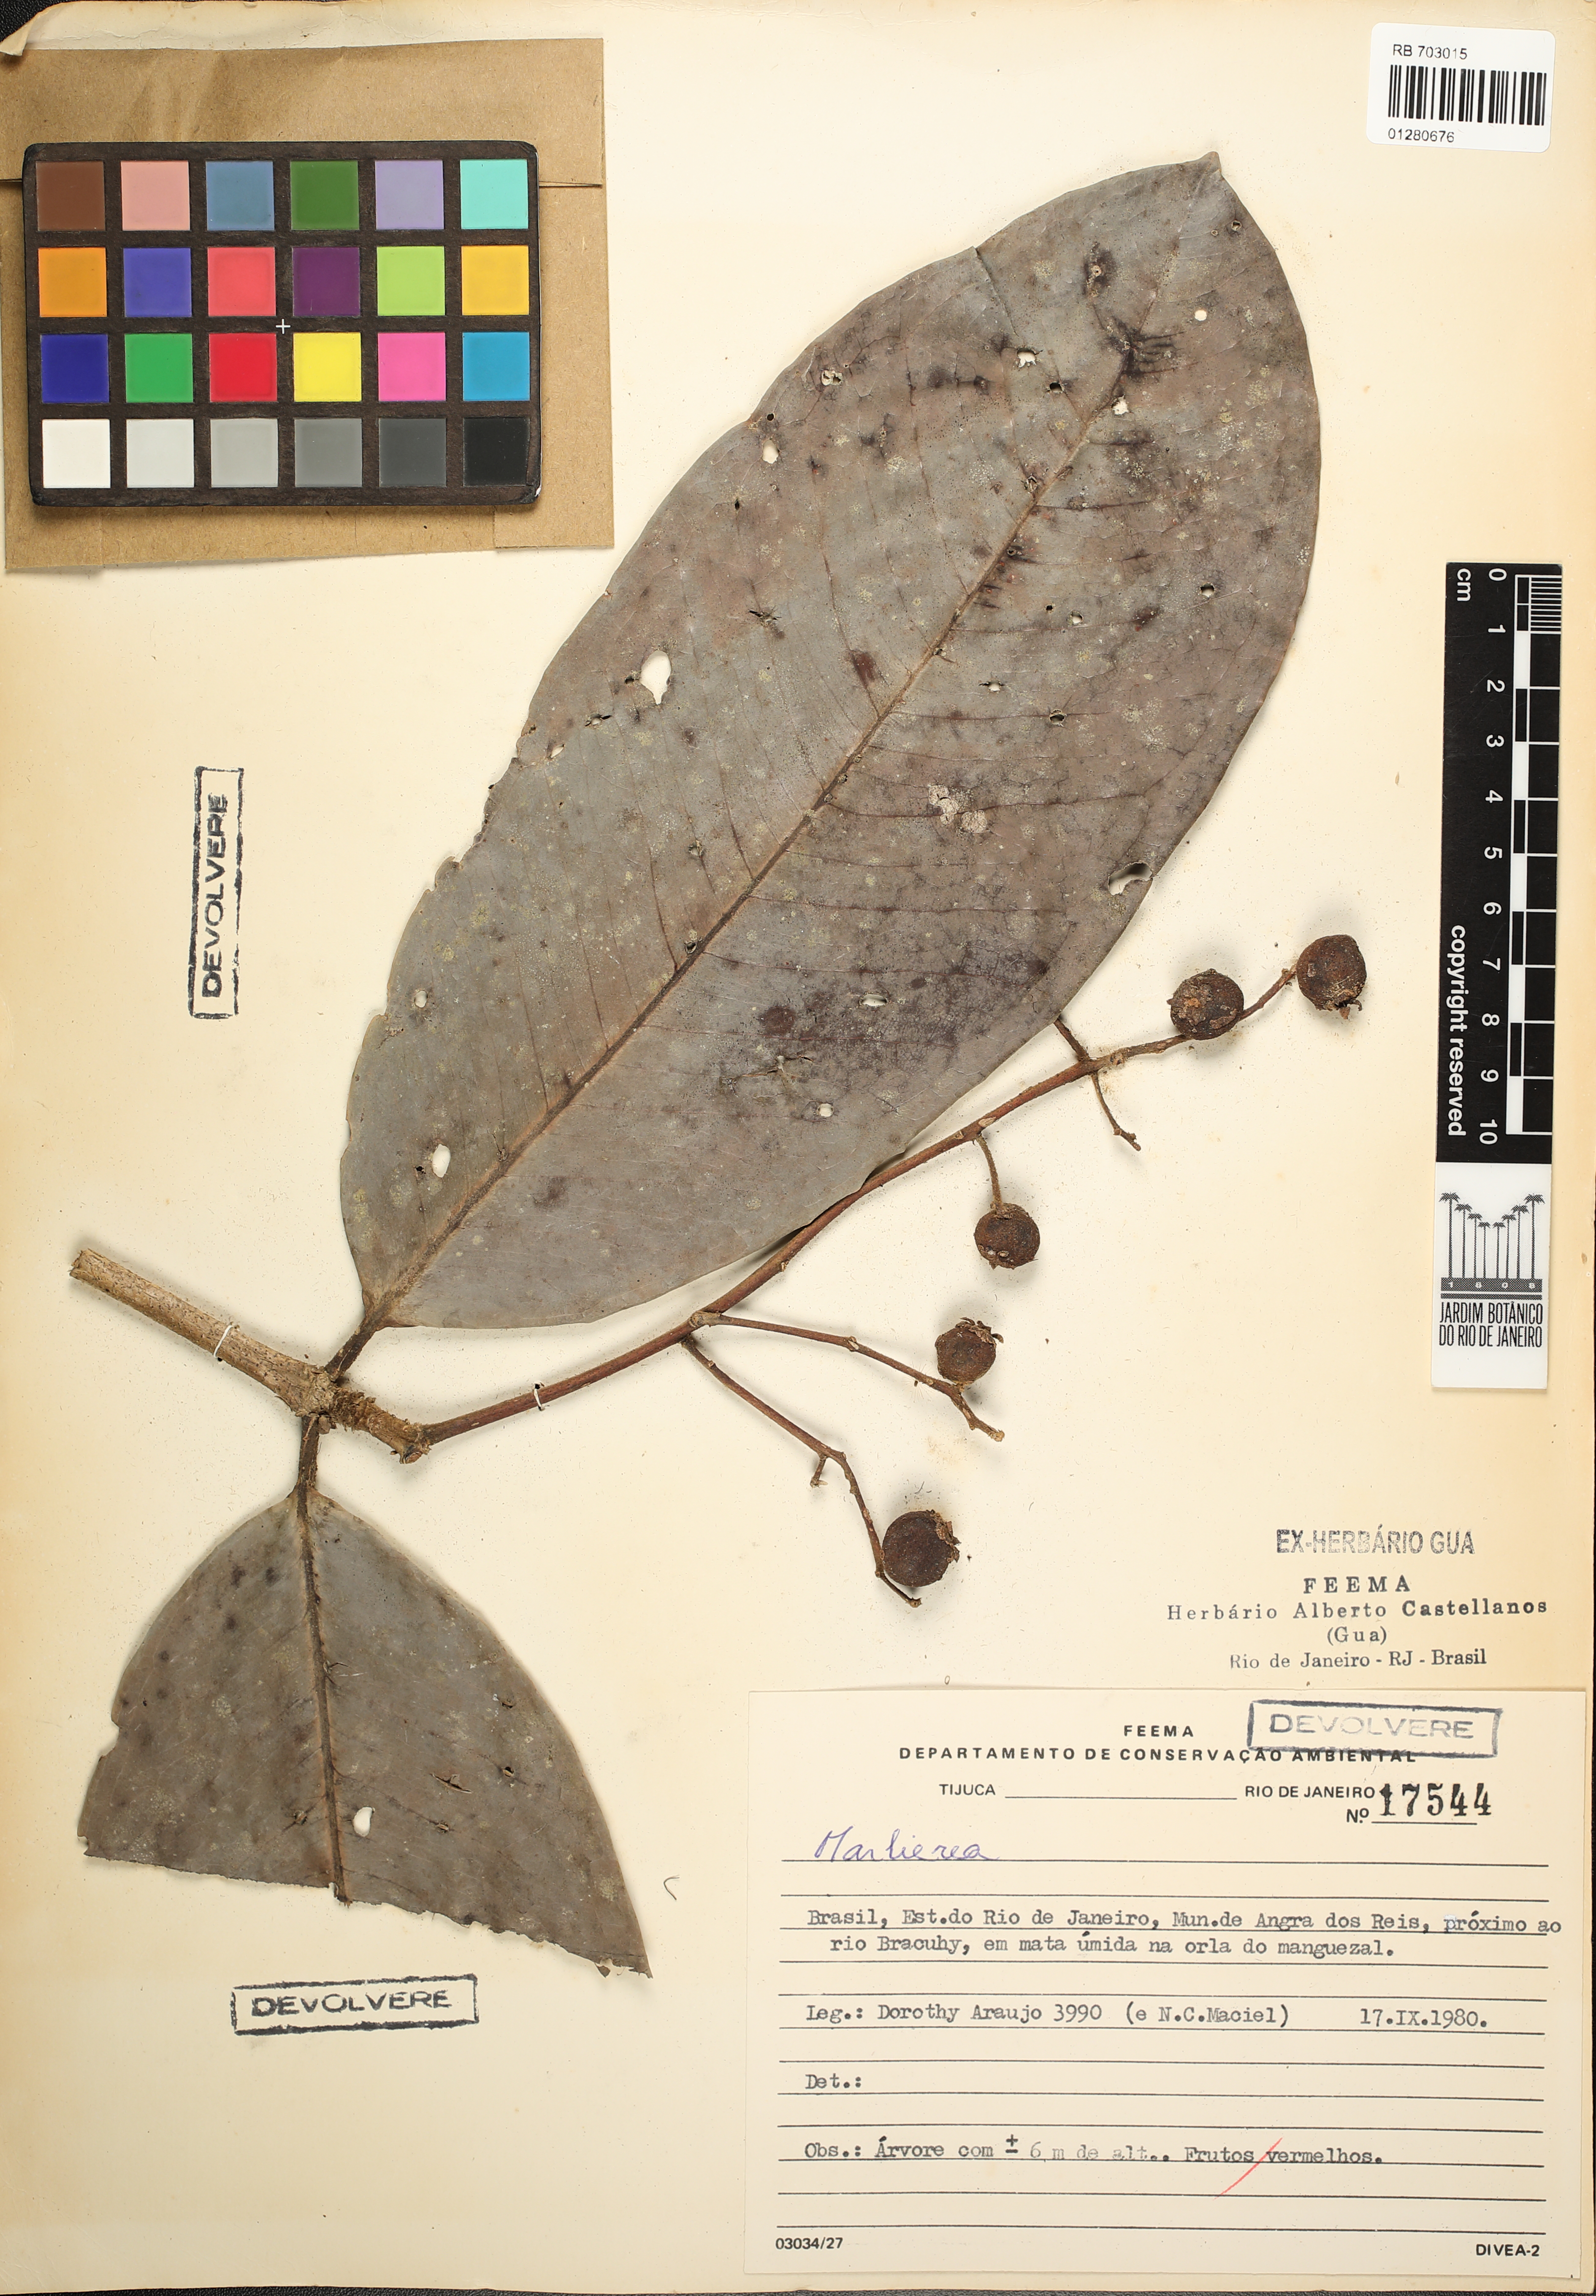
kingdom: Plantae
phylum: Tracheophyta
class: Magnoliopsida
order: Myrtales
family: Myrtaceae
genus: Marlierea
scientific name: Marlierea
